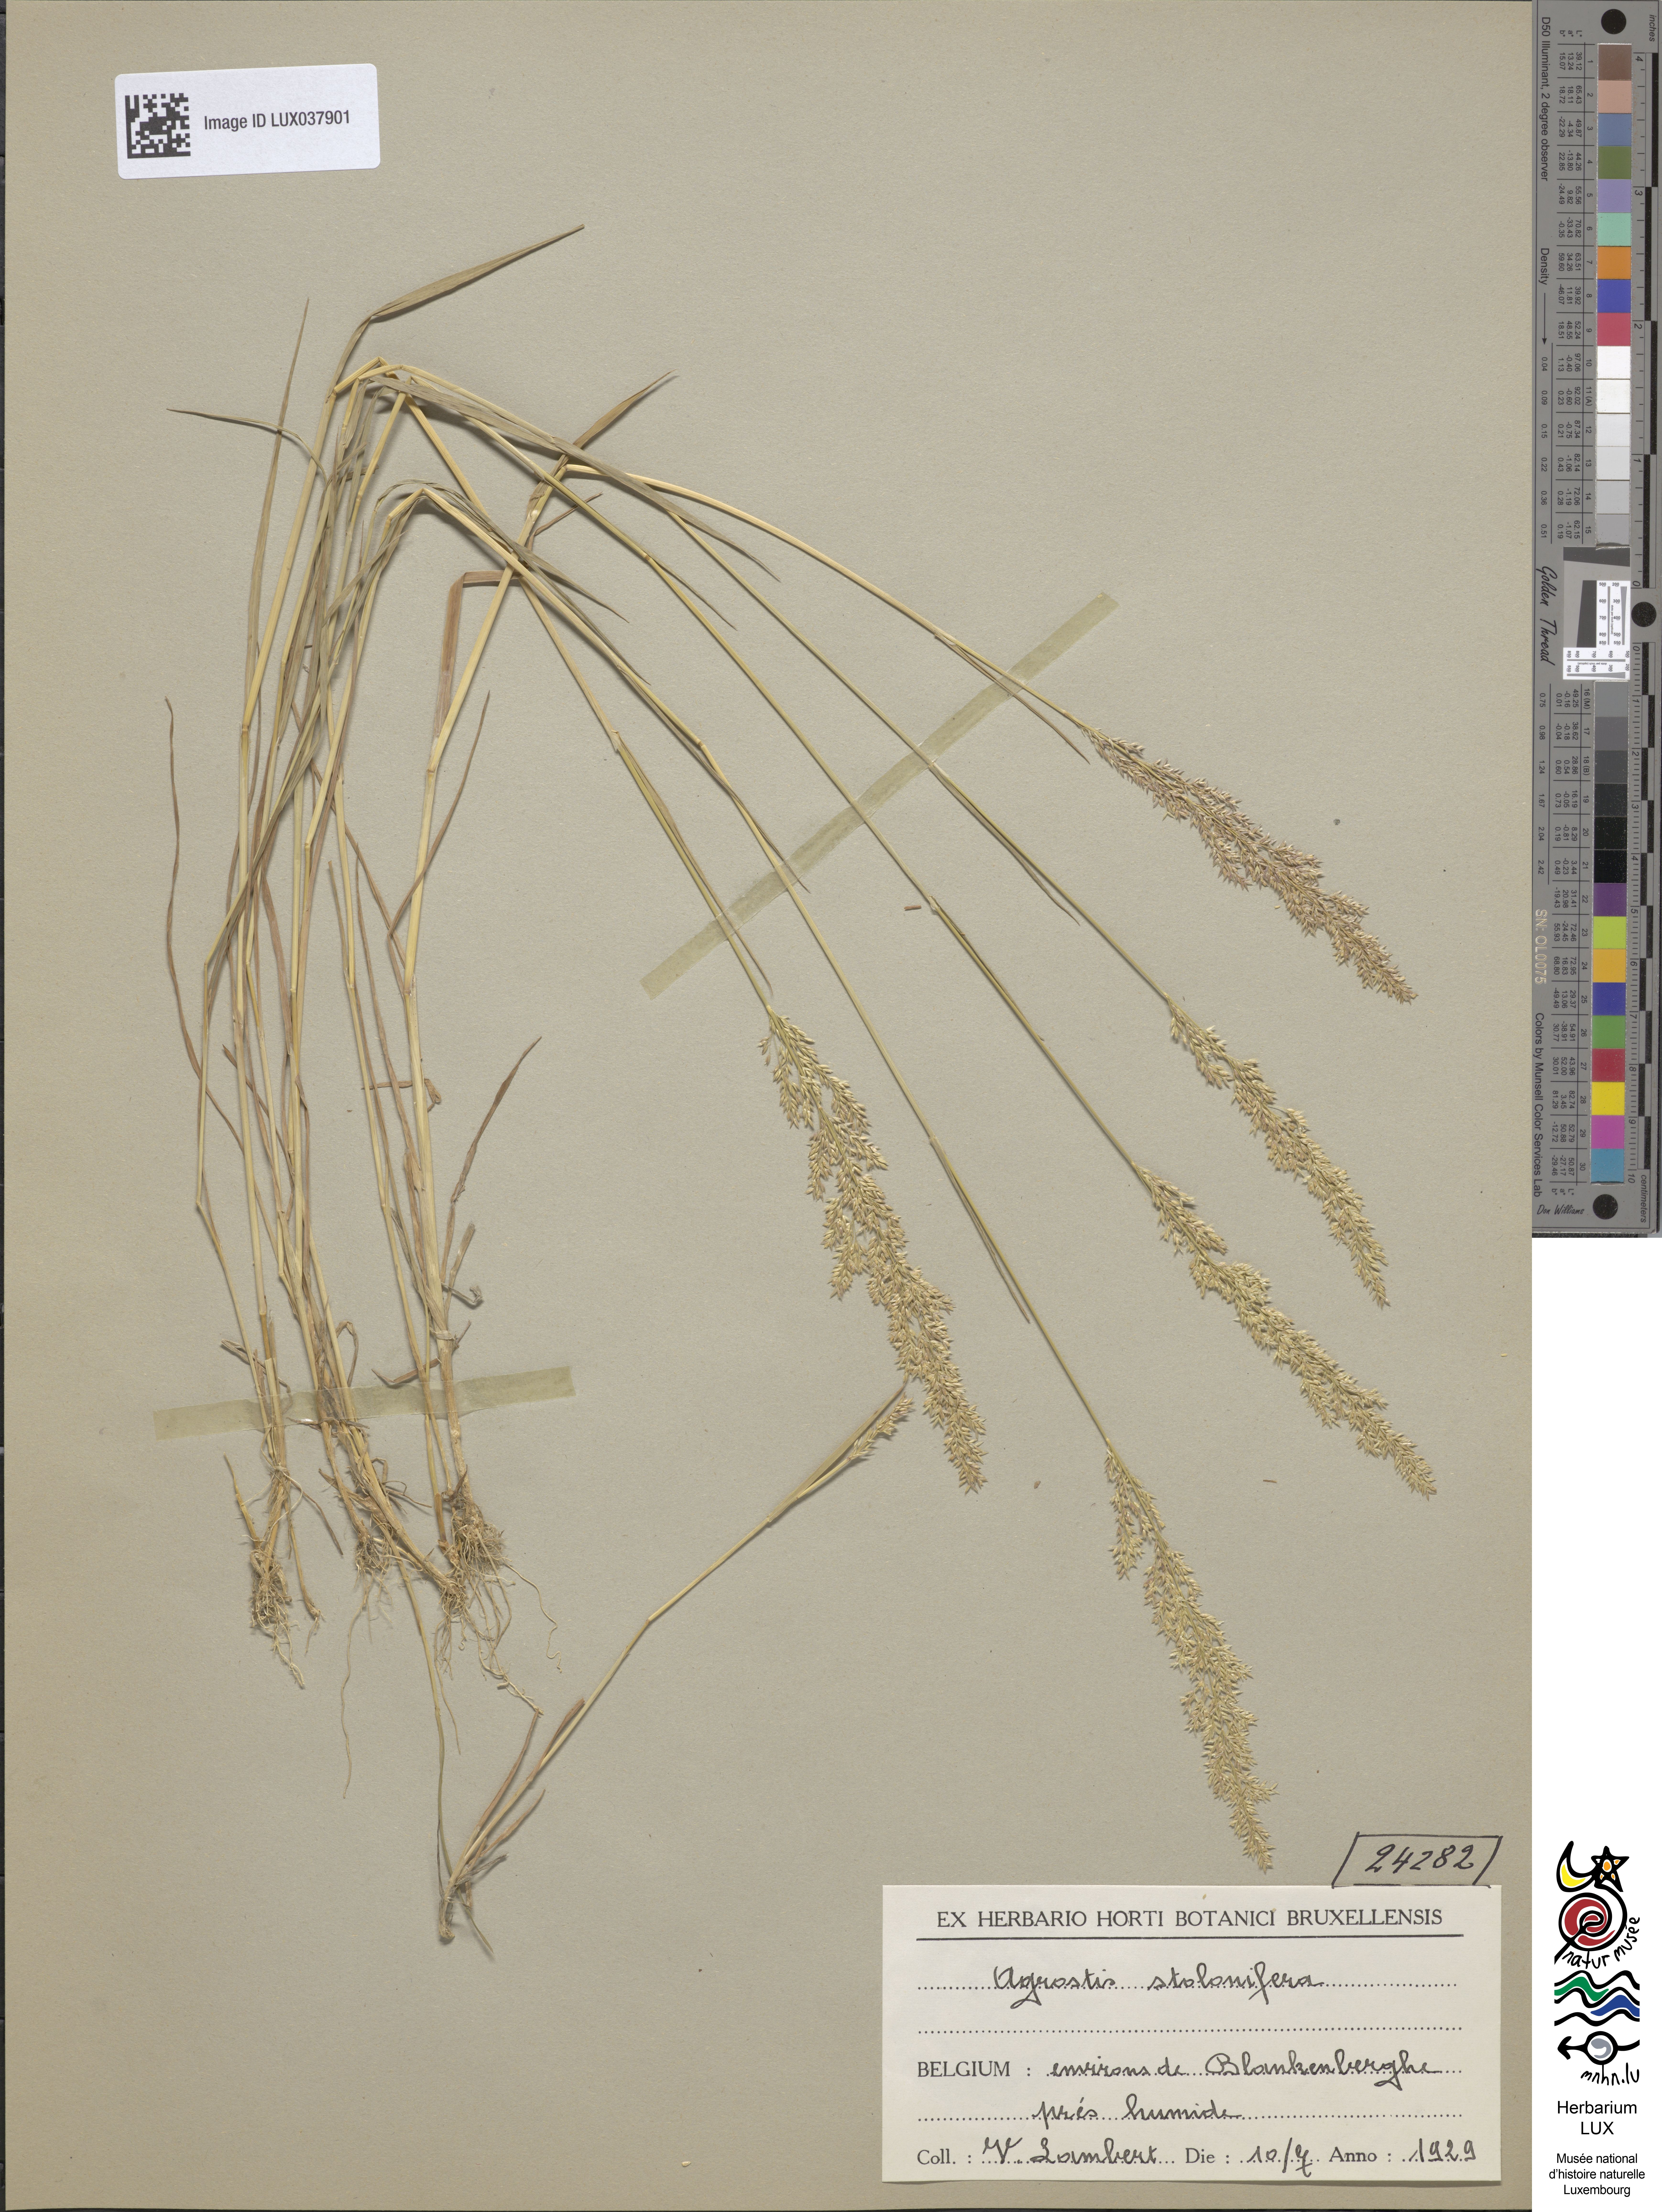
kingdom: Plantae
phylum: Tracheophyta
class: Liliopsida
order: Poales
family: Poaceae
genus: Poa
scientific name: Poa nemoralis
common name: Wood bluegrass
